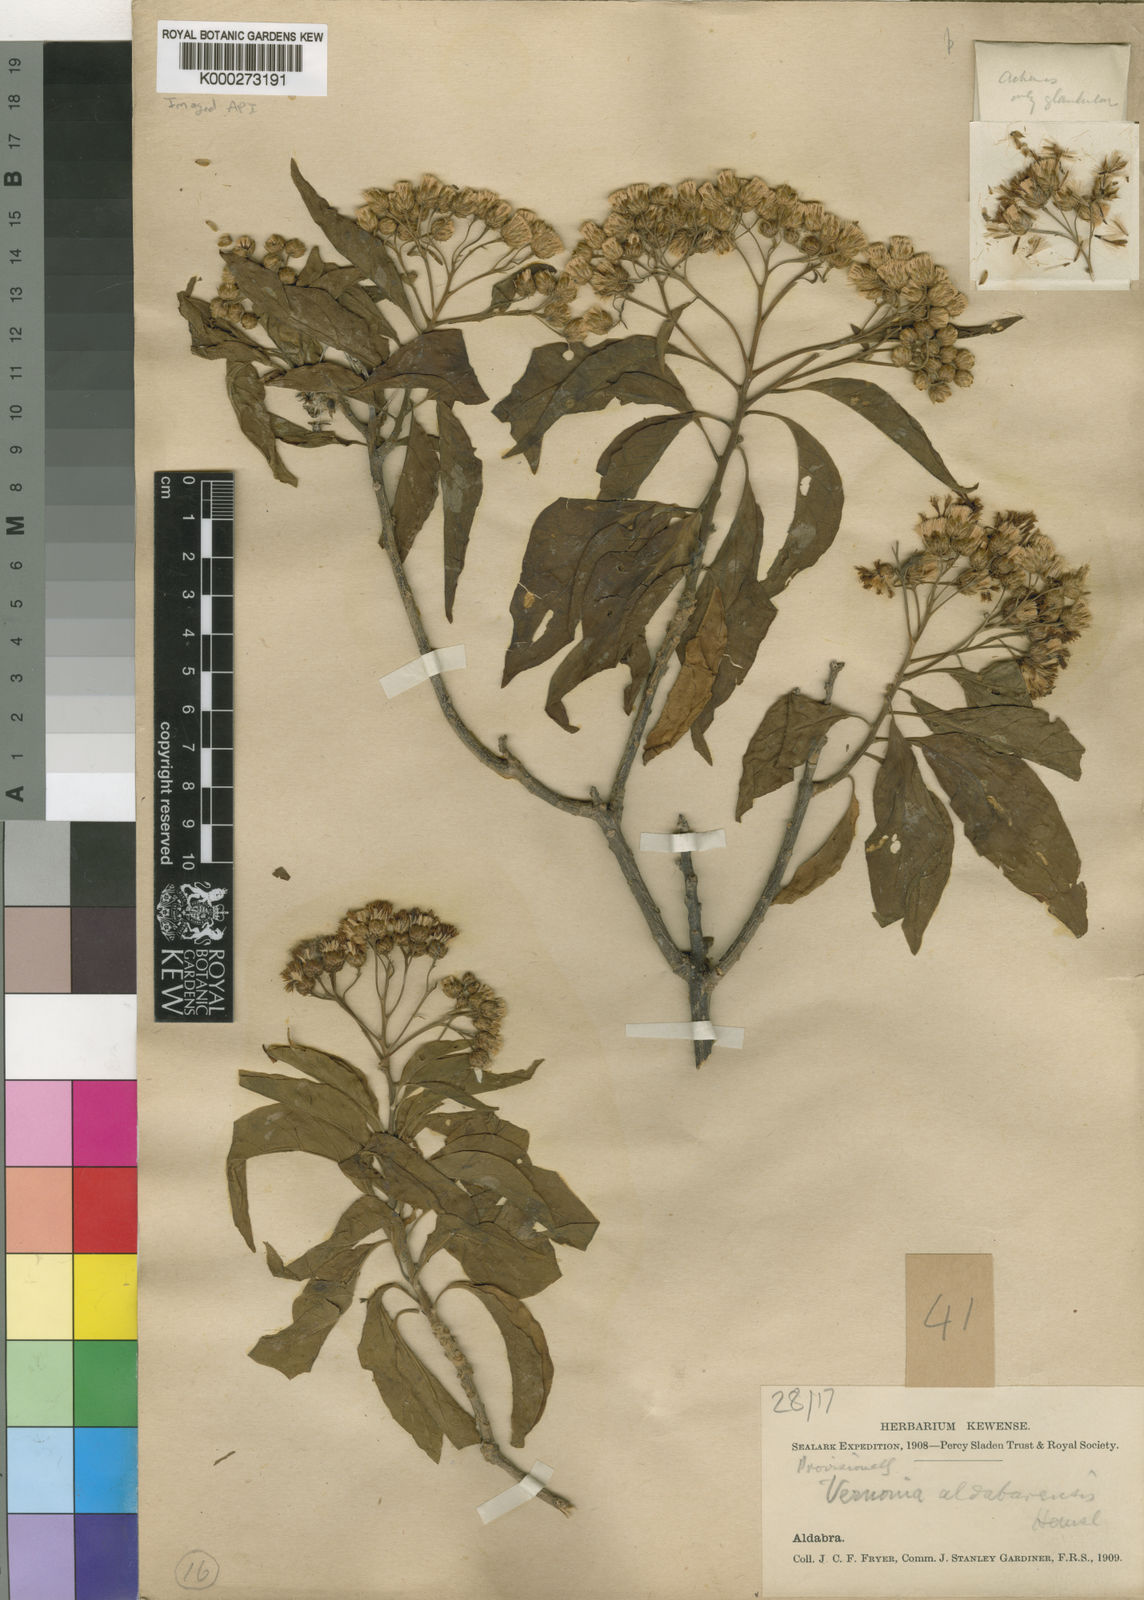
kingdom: Plantae
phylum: Tracheophyta
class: Magnoliopsida
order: Asterales
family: Asteraceae
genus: Vernonia
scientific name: Vernonia
